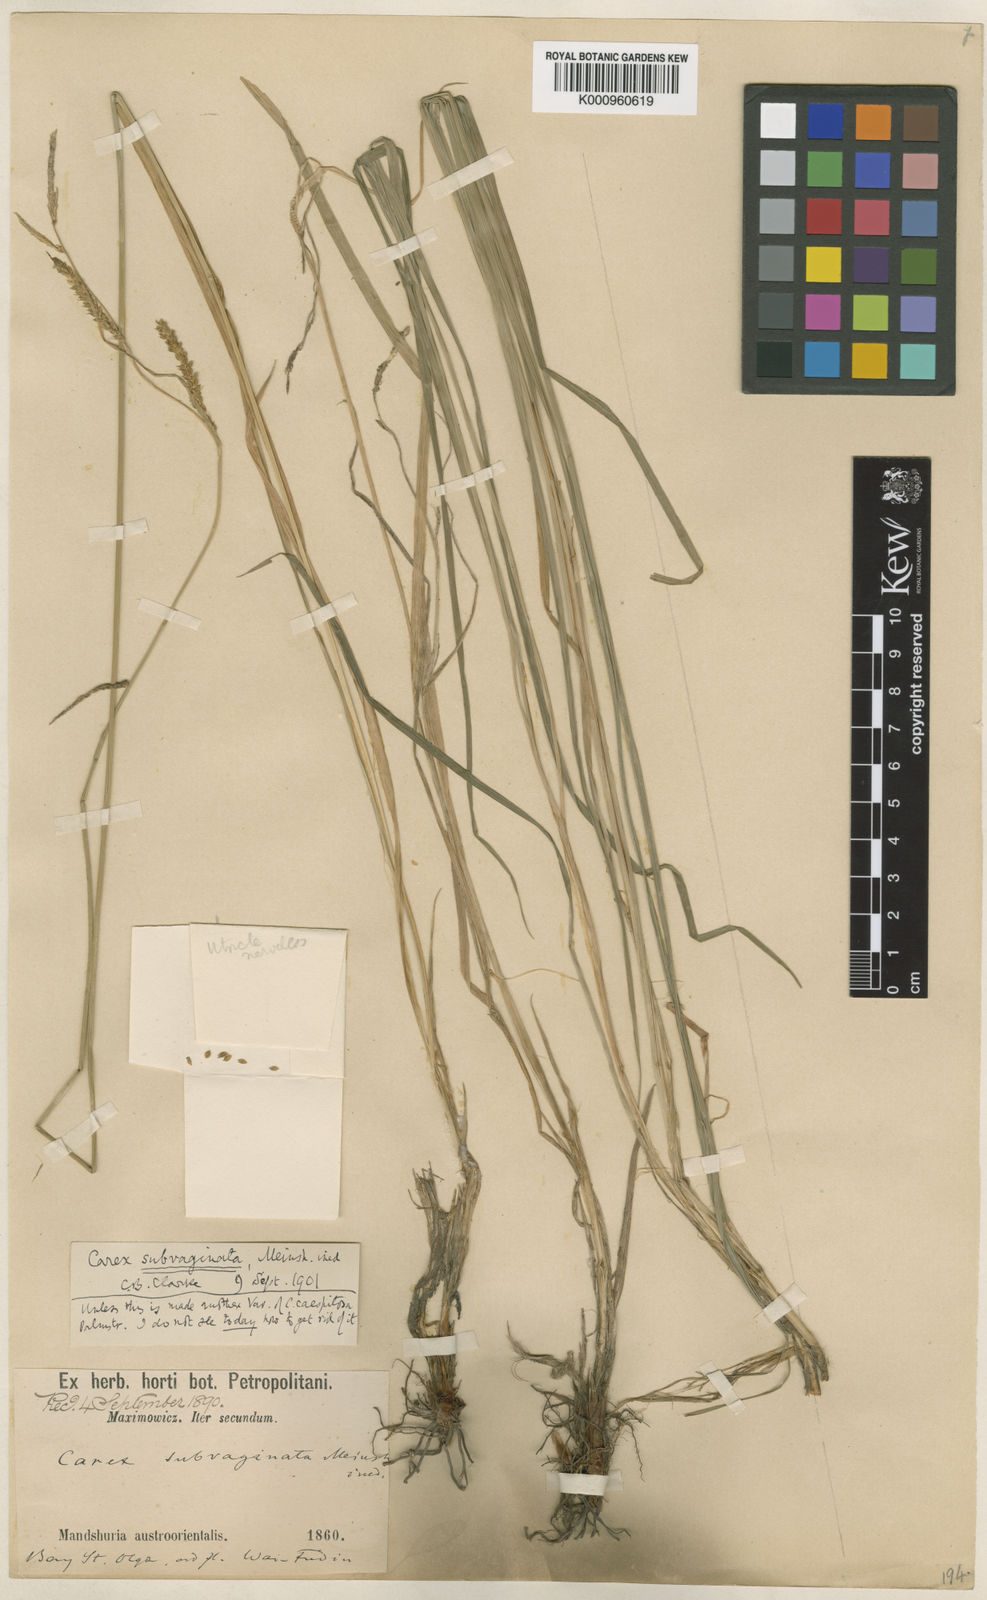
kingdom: Plantae
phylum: Tracheophyta
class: Liliopsida
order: Poales
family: Cyperaceae
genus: Carex
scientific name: Carex schmidtii
